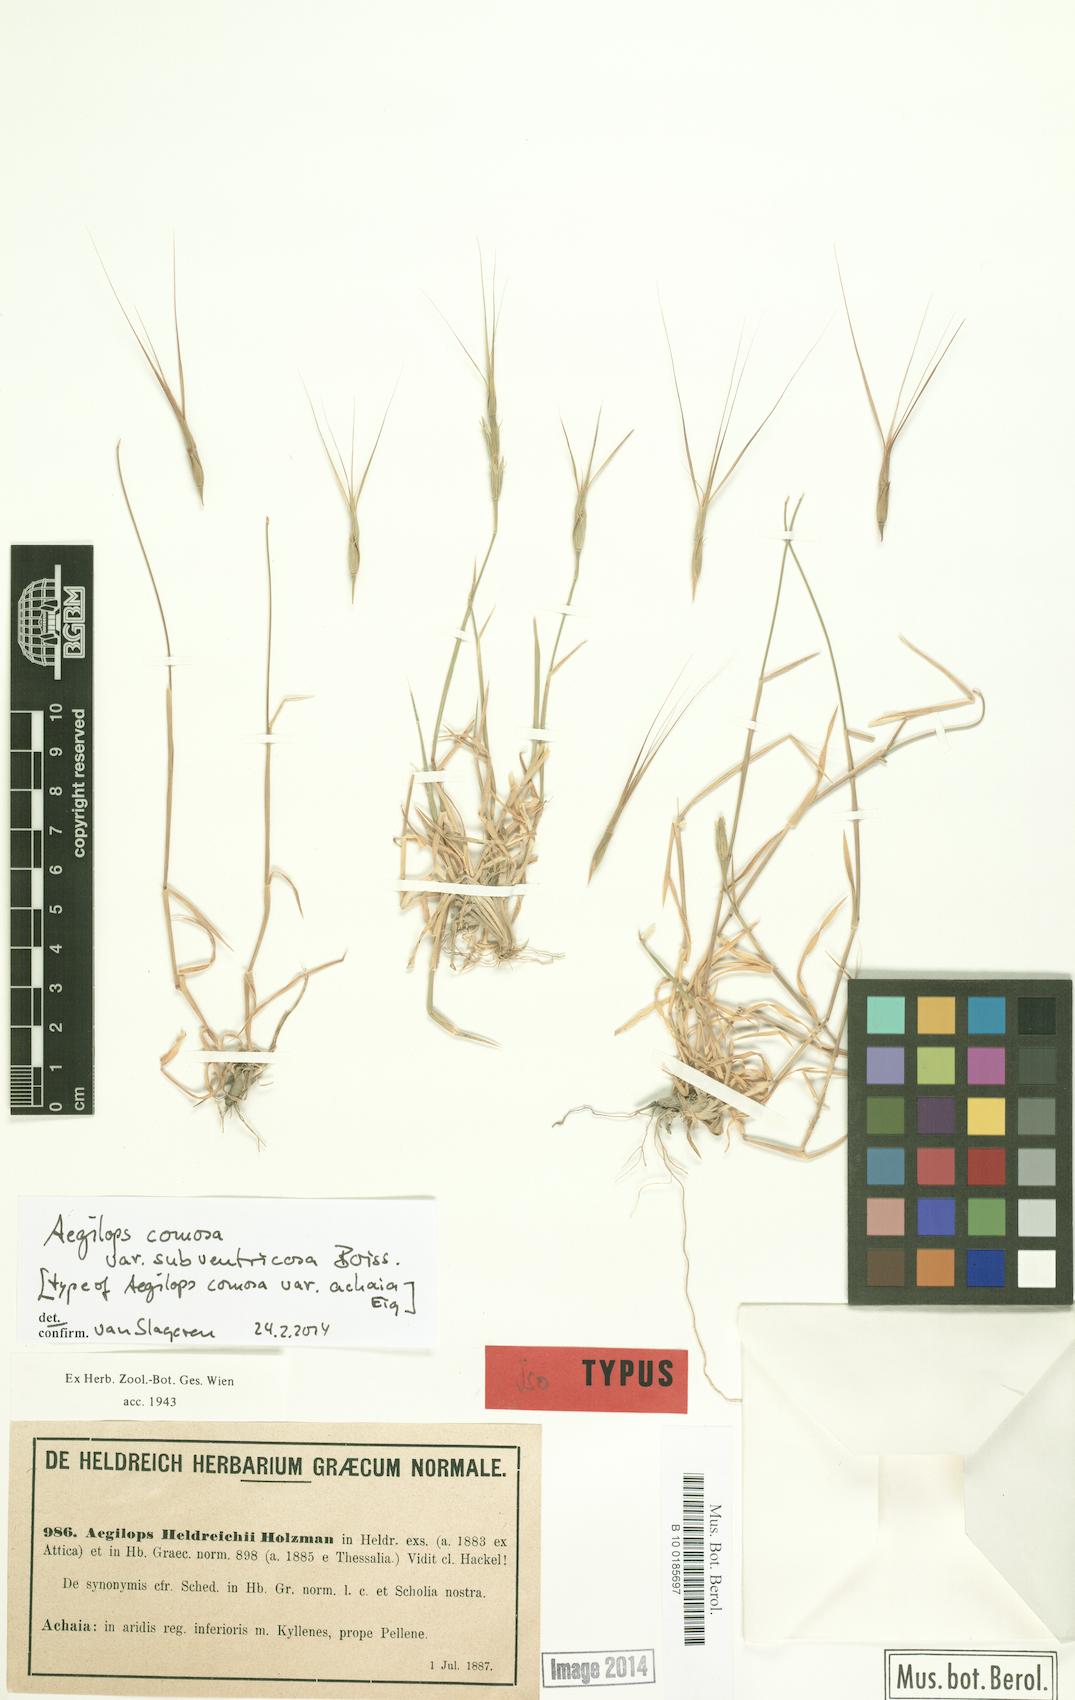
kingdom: Plantae
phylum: Tracheophyta
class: Liliopsida
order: Poales
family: Poaceae
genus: Aegilops
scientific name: Aegilops comosa
